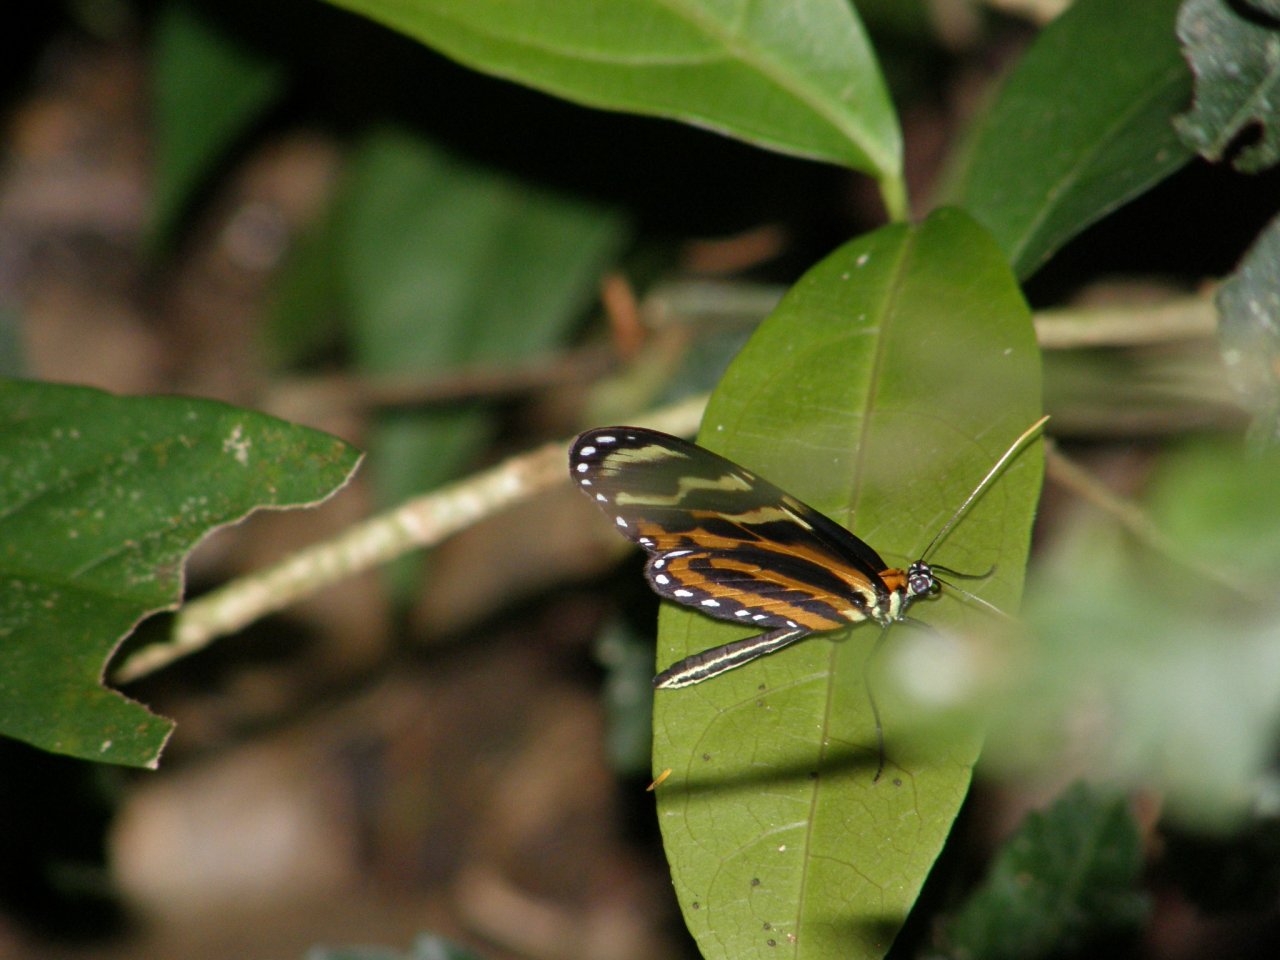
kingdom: Animalia
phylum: Arthropoda
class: Insecta
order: Lepidoptera
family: Nymphalidae
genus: Mechanitis
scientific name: Mechanitis menapis
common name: Menapis Tigerwing
